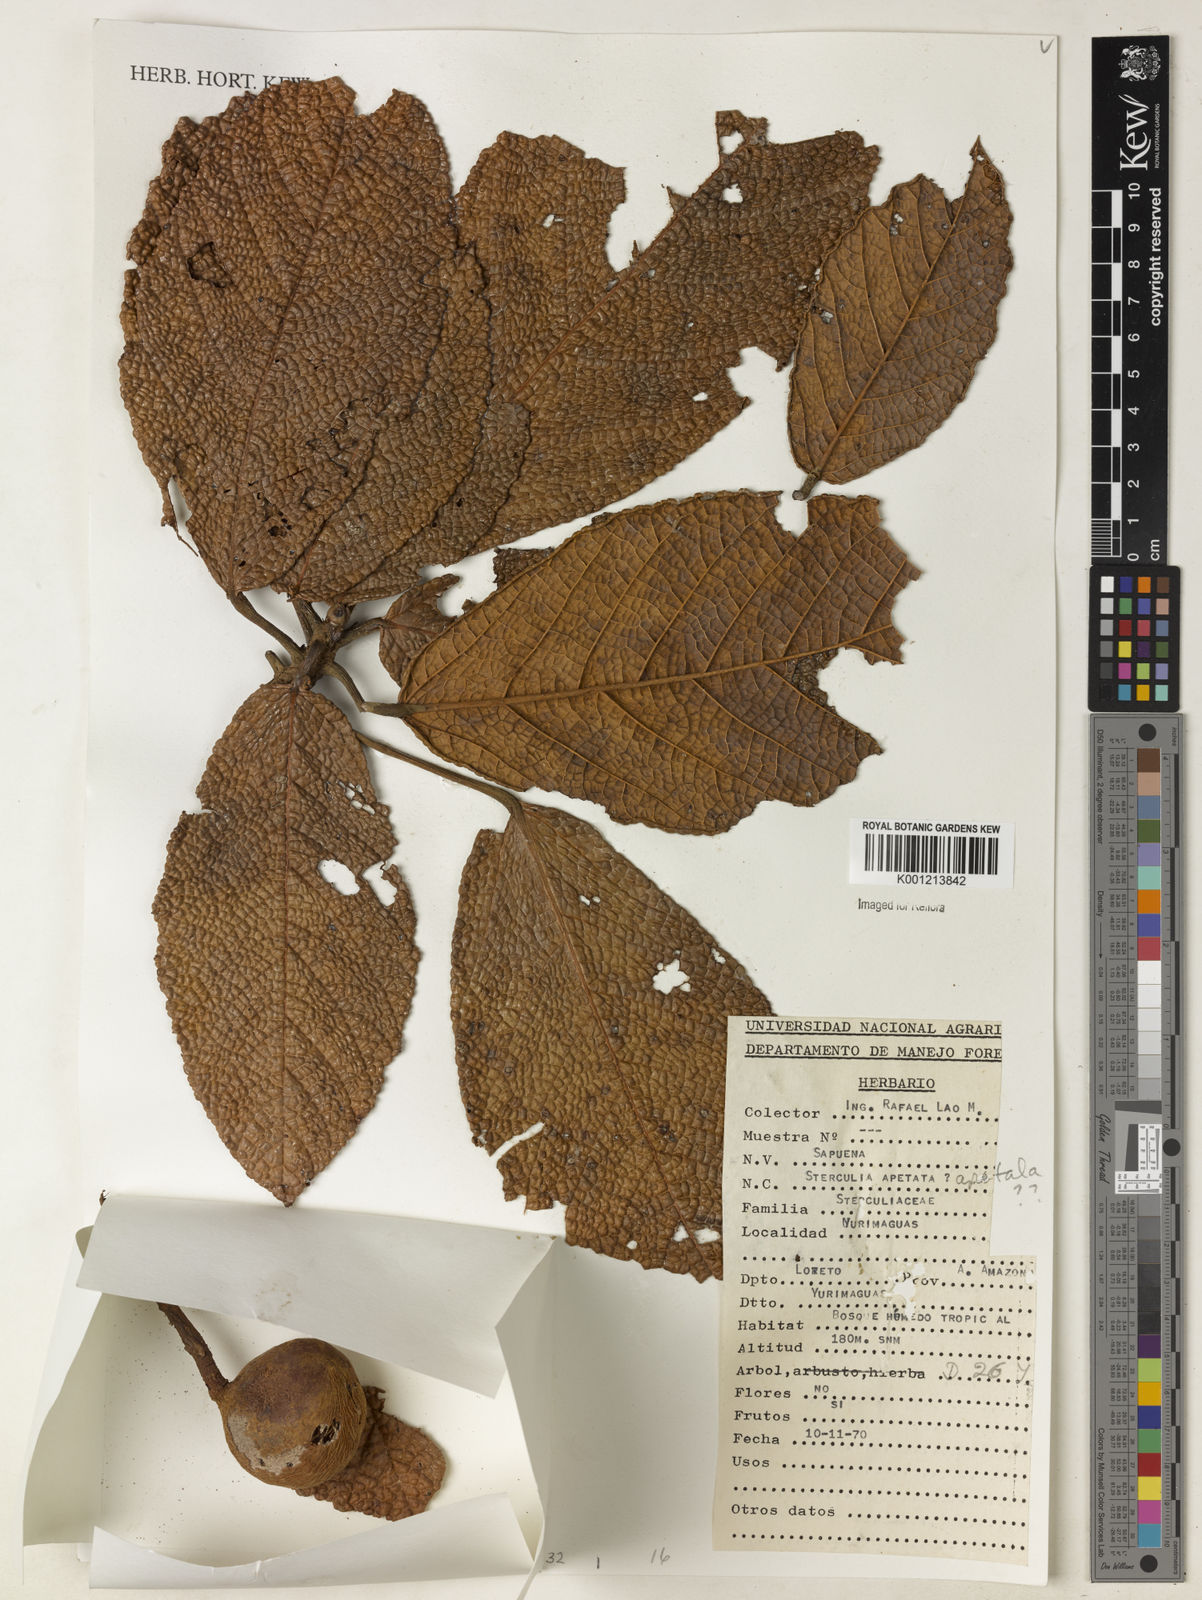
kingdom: Plantae
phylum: Tracheophyta
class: Magnoliopsida
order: Malvales
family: Malvaceae
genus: Sterculia
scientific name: Sterculia apeibophylla
